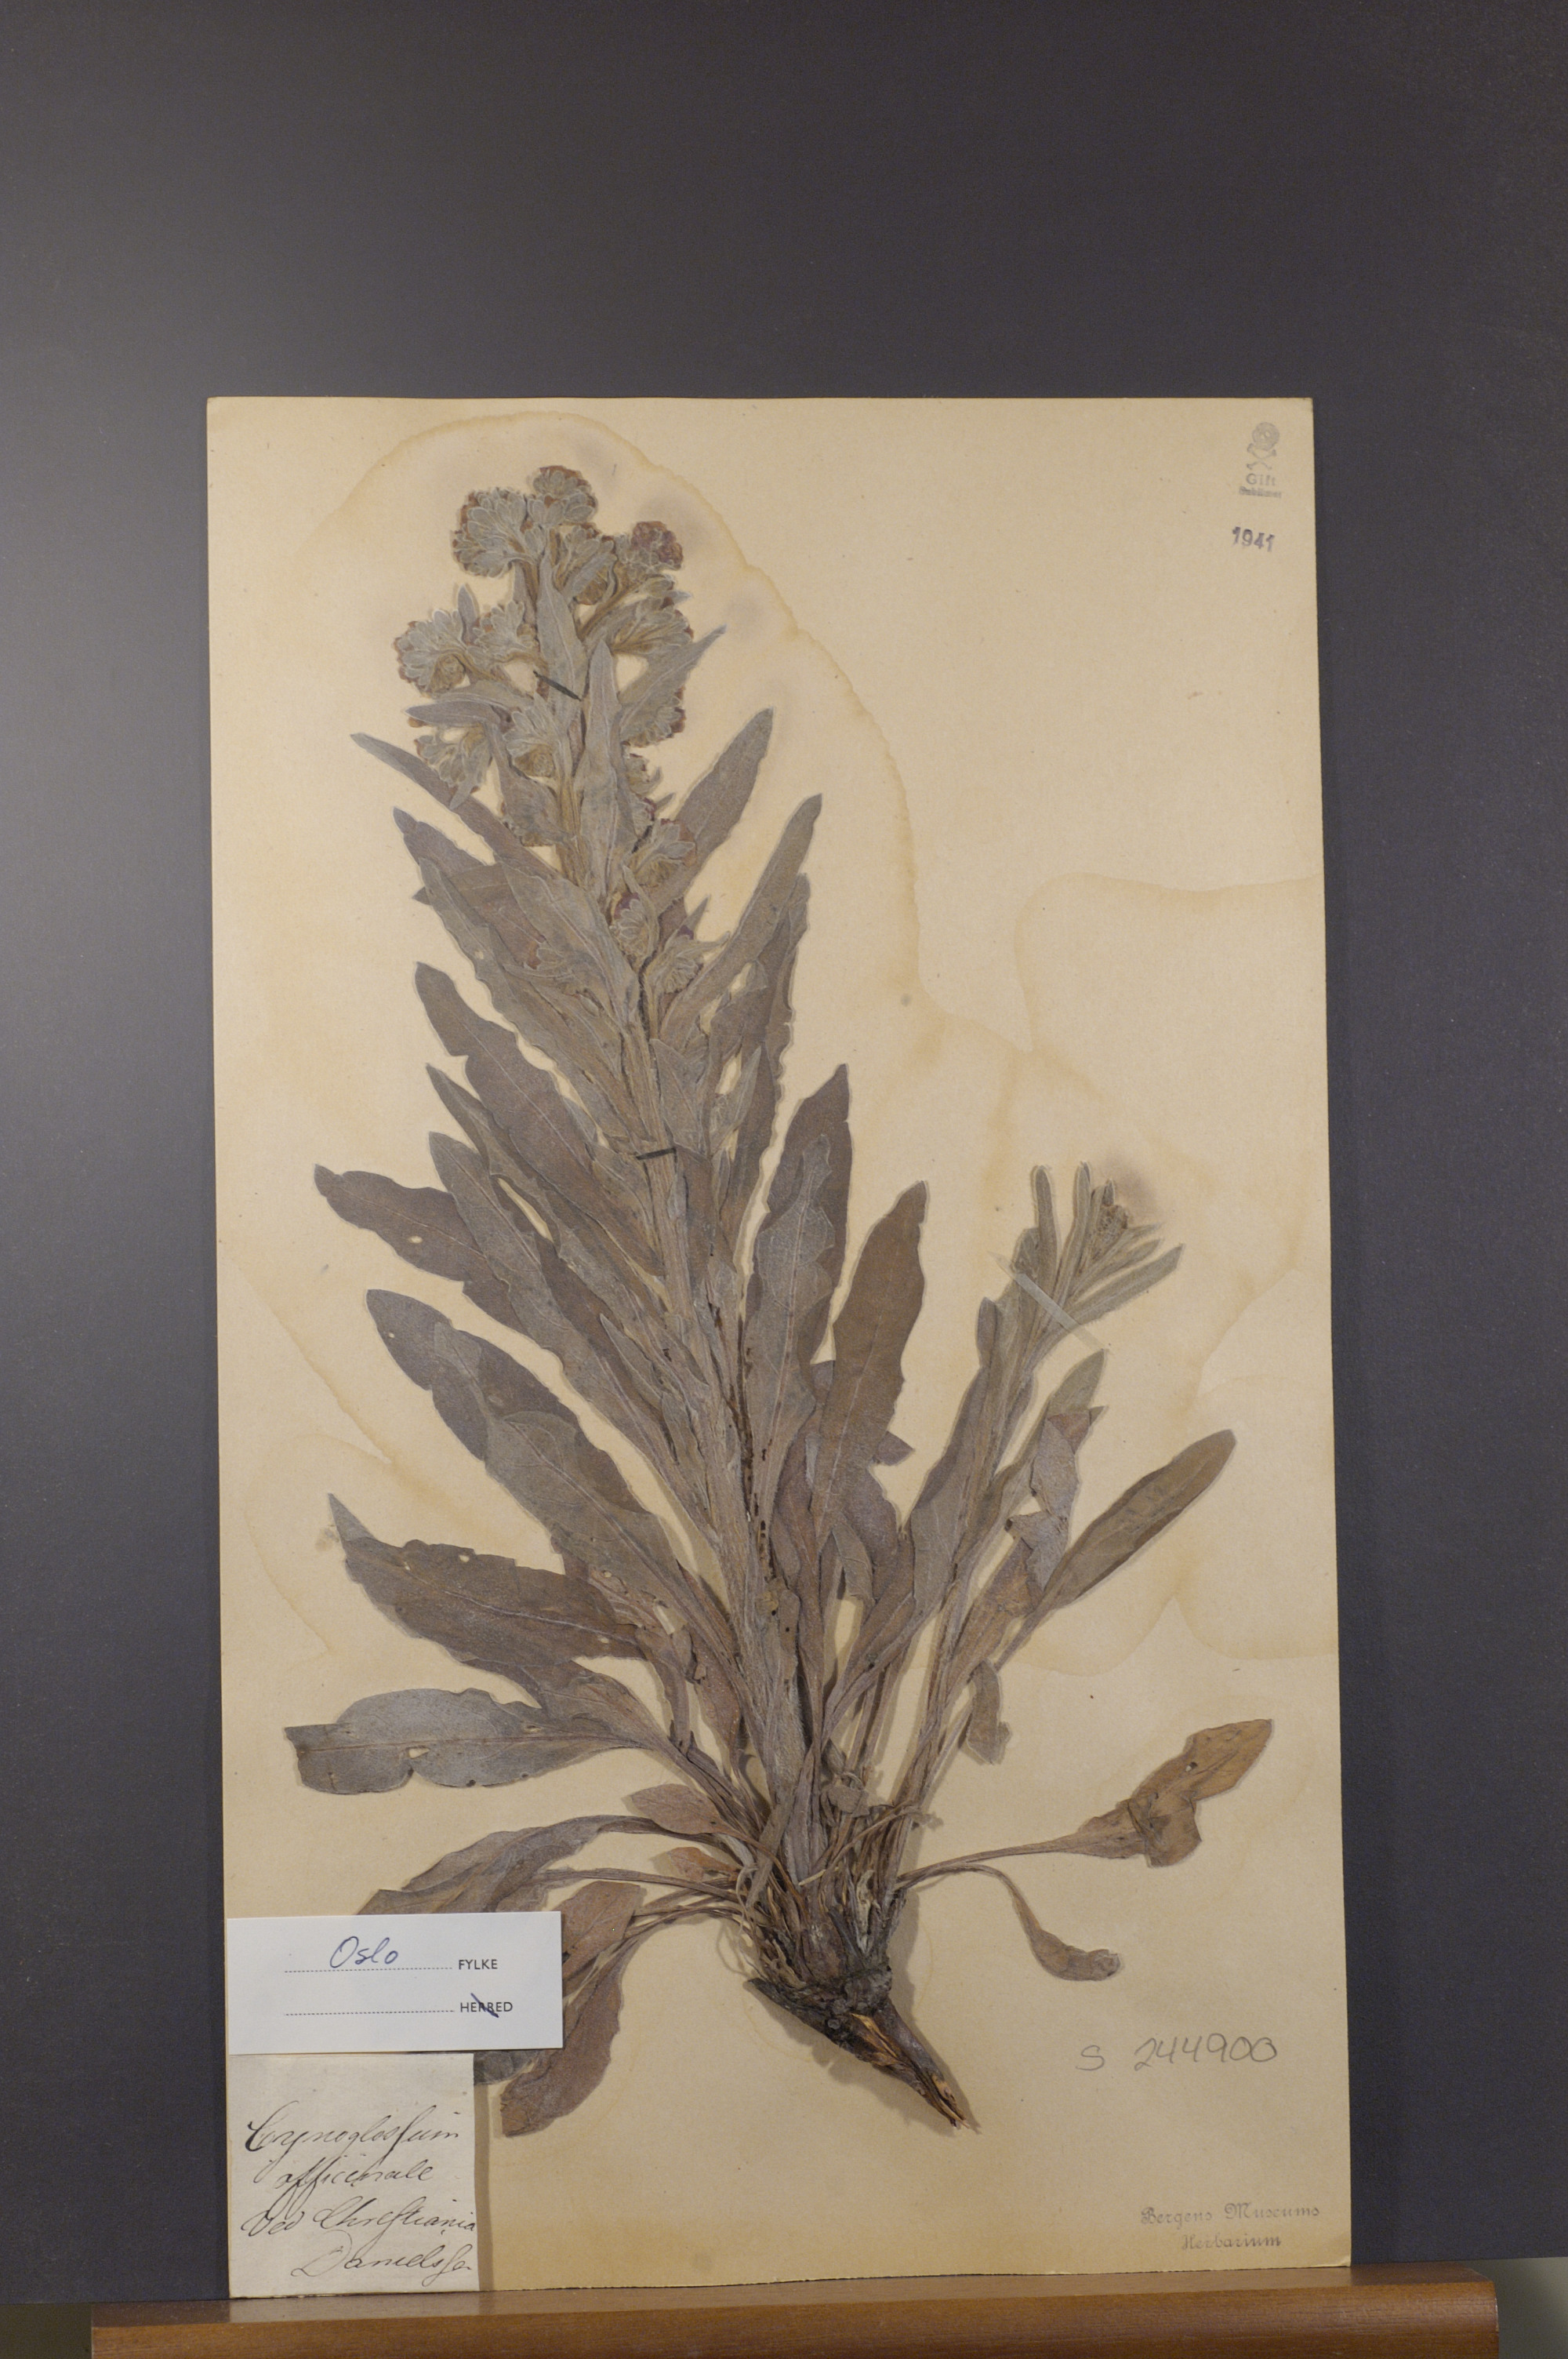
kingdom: Plantae
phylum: Tracheophyta
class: Magnoliopsida
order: Boraginales
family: Boraginaceae
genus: Cynoglossum
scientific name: Cynoglossum officinale
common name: Hound's-tongue
